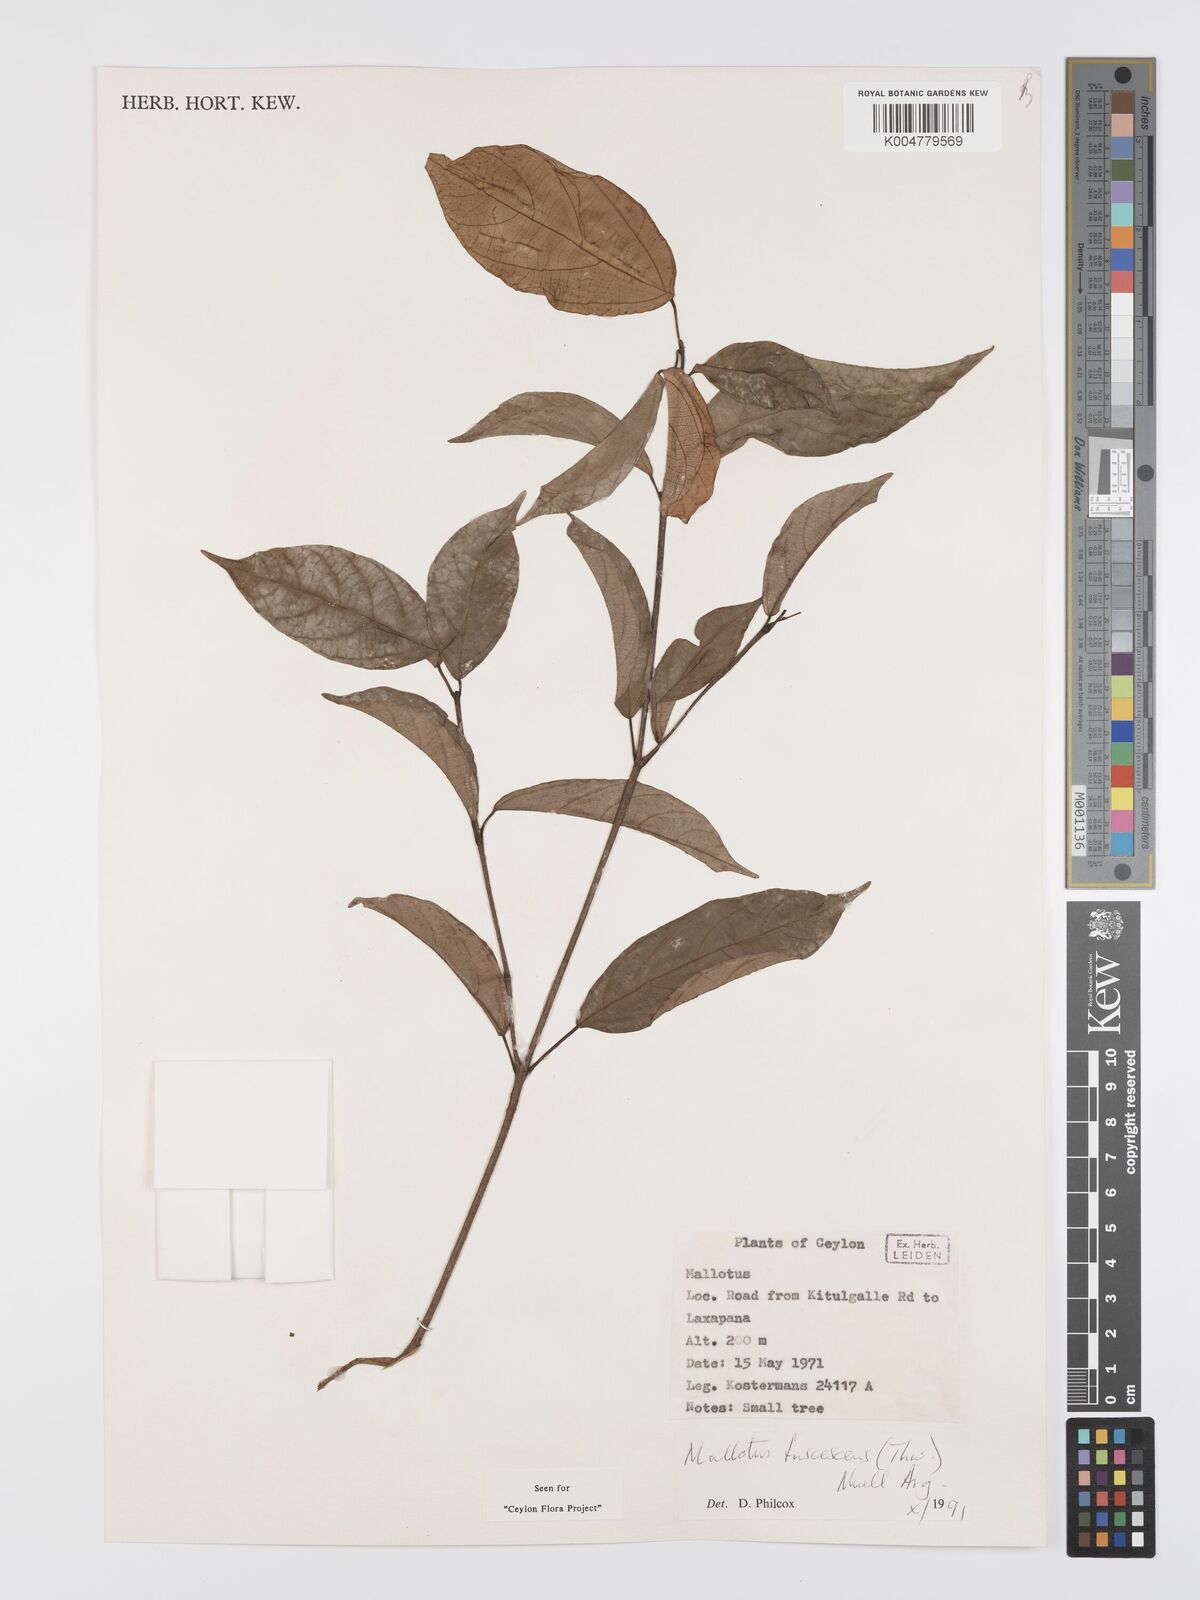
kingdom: Plantae
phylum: Tracheophyta
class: Magnoliopsida
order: Malpighiales
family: Euphorbiaceae
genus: Mallotus
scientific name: Mallotus fuscescens
